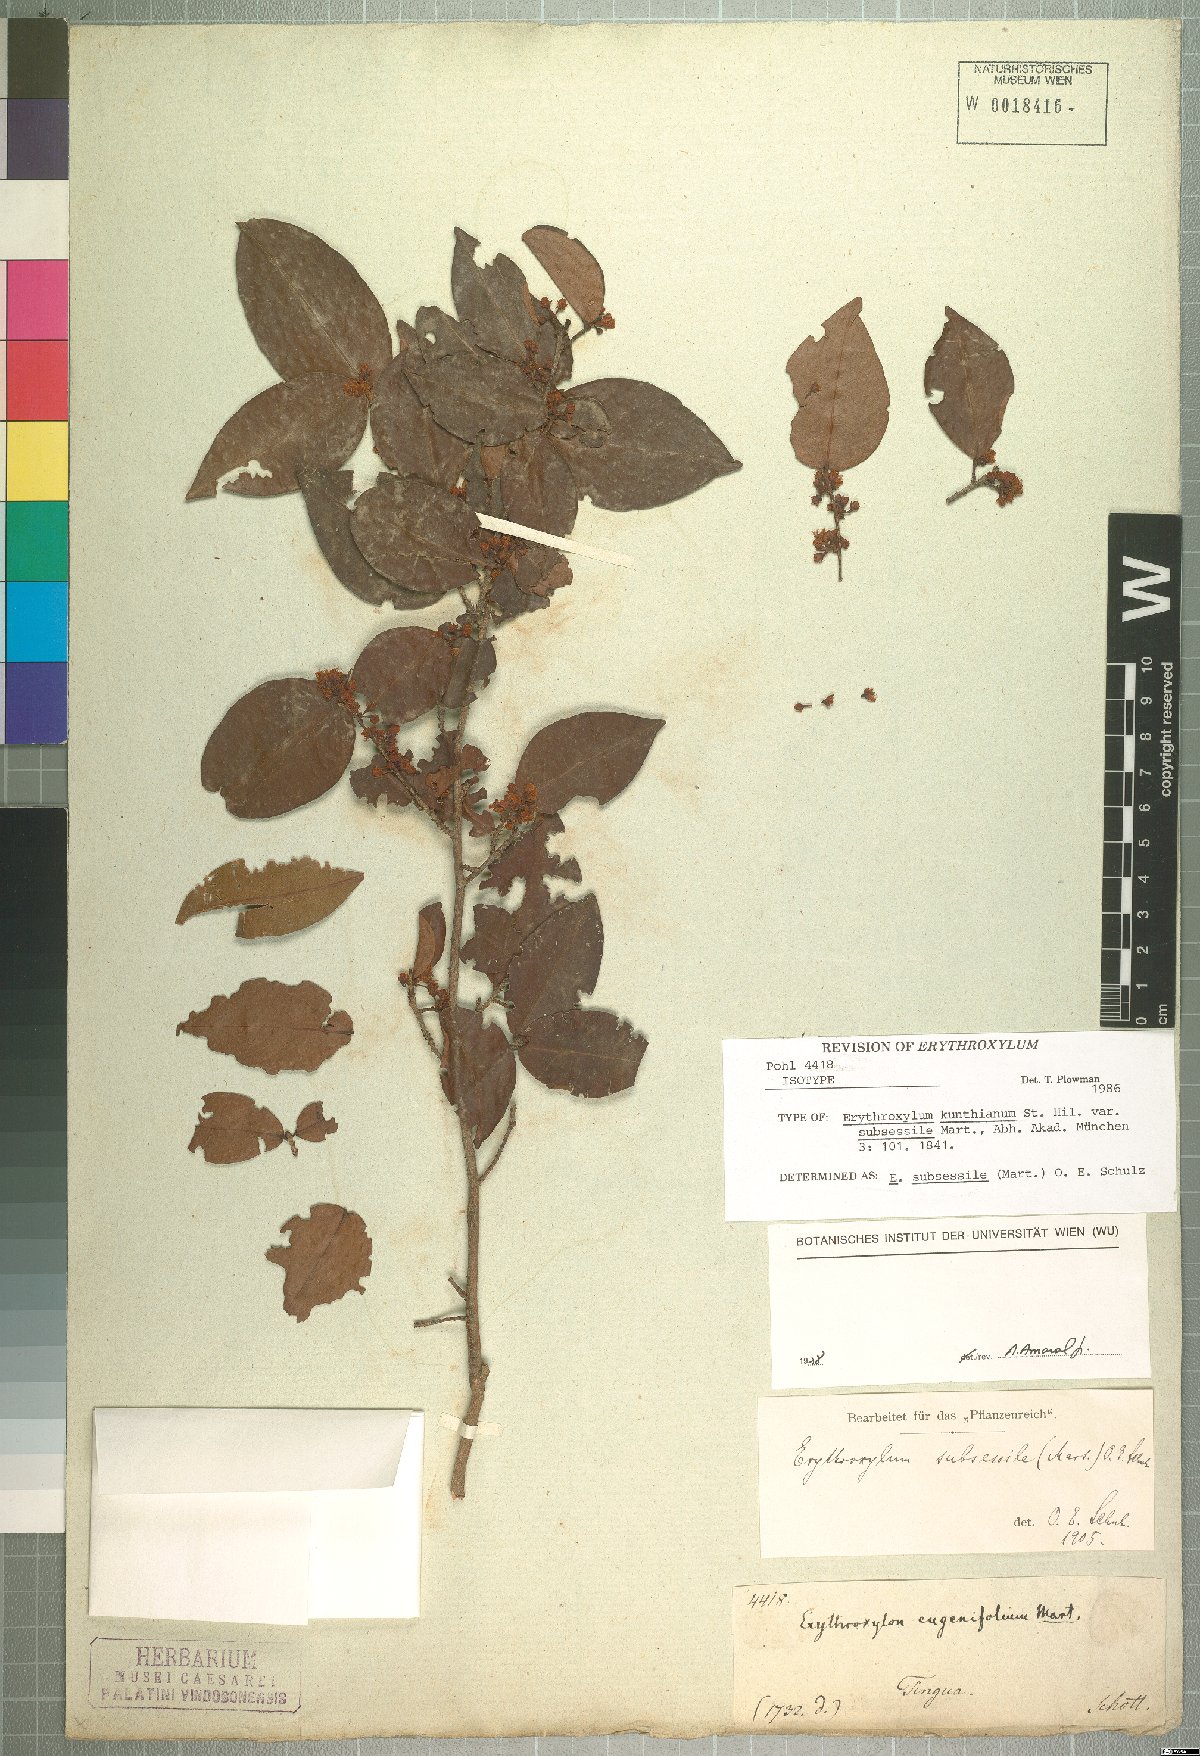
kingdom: Plantae
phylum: Tracheophyta
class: Magnoliopsida
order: Malpighiales
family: Erythroxylaceae
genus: Erythroxylum
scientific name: Erythroxylum macrocalyx
